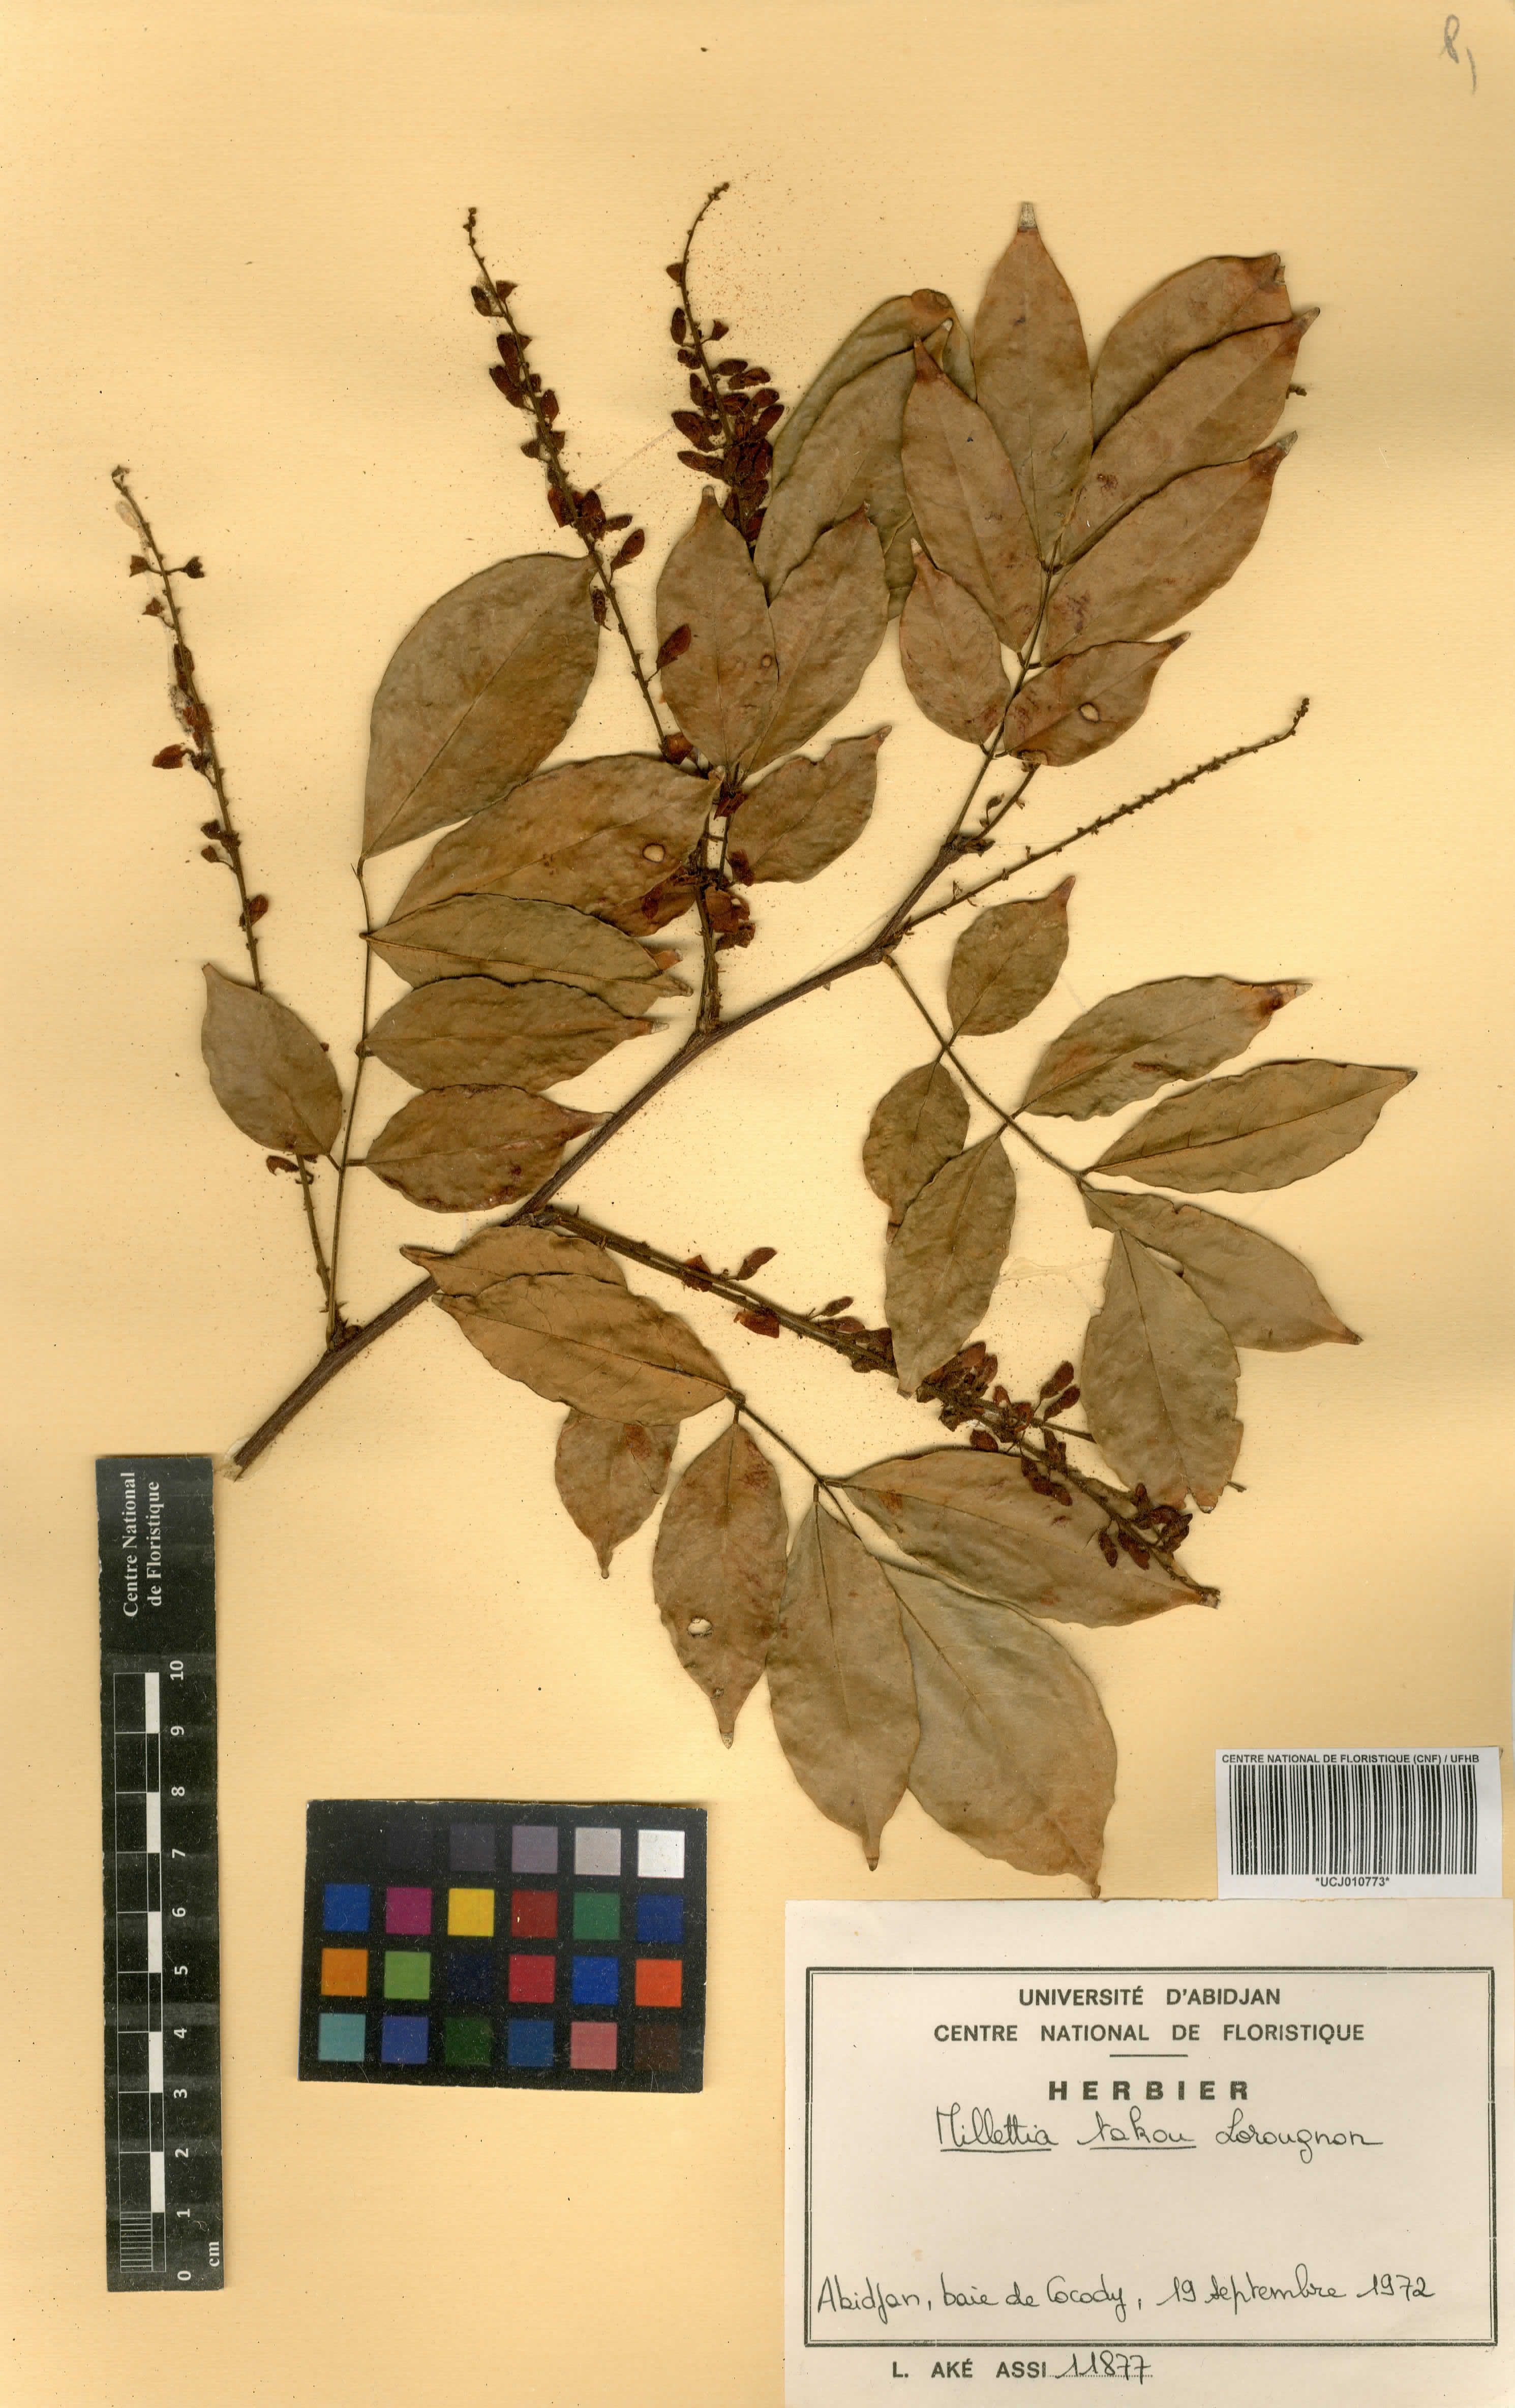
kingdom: Plantae
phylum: Tracheophyta
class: Magnoliopsida
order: Fabales
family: Fabaceae
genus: Millettia
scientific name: Millettia takou
